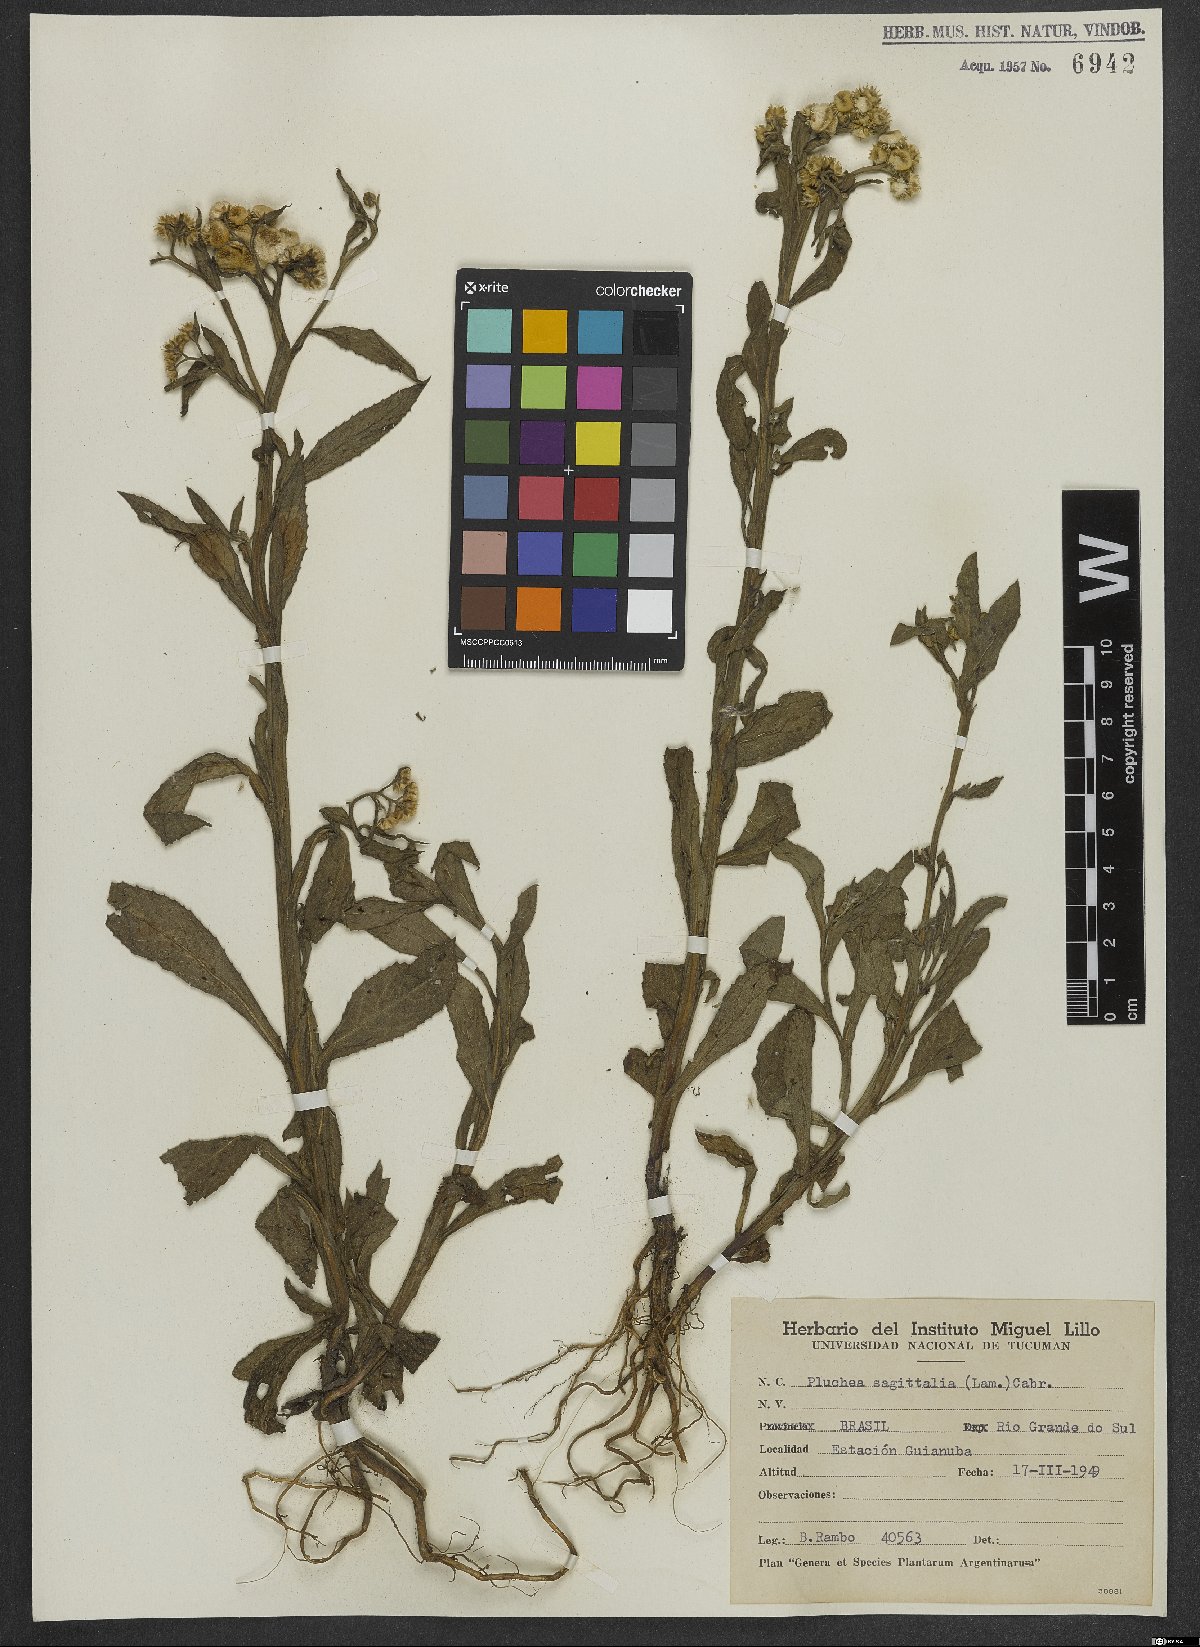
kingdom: Plantae
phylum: Tracheophyta
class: Magnoliopsida
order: Asterales
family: Asteraceae
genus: Pluchea
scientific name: Pluchea sagittalis
